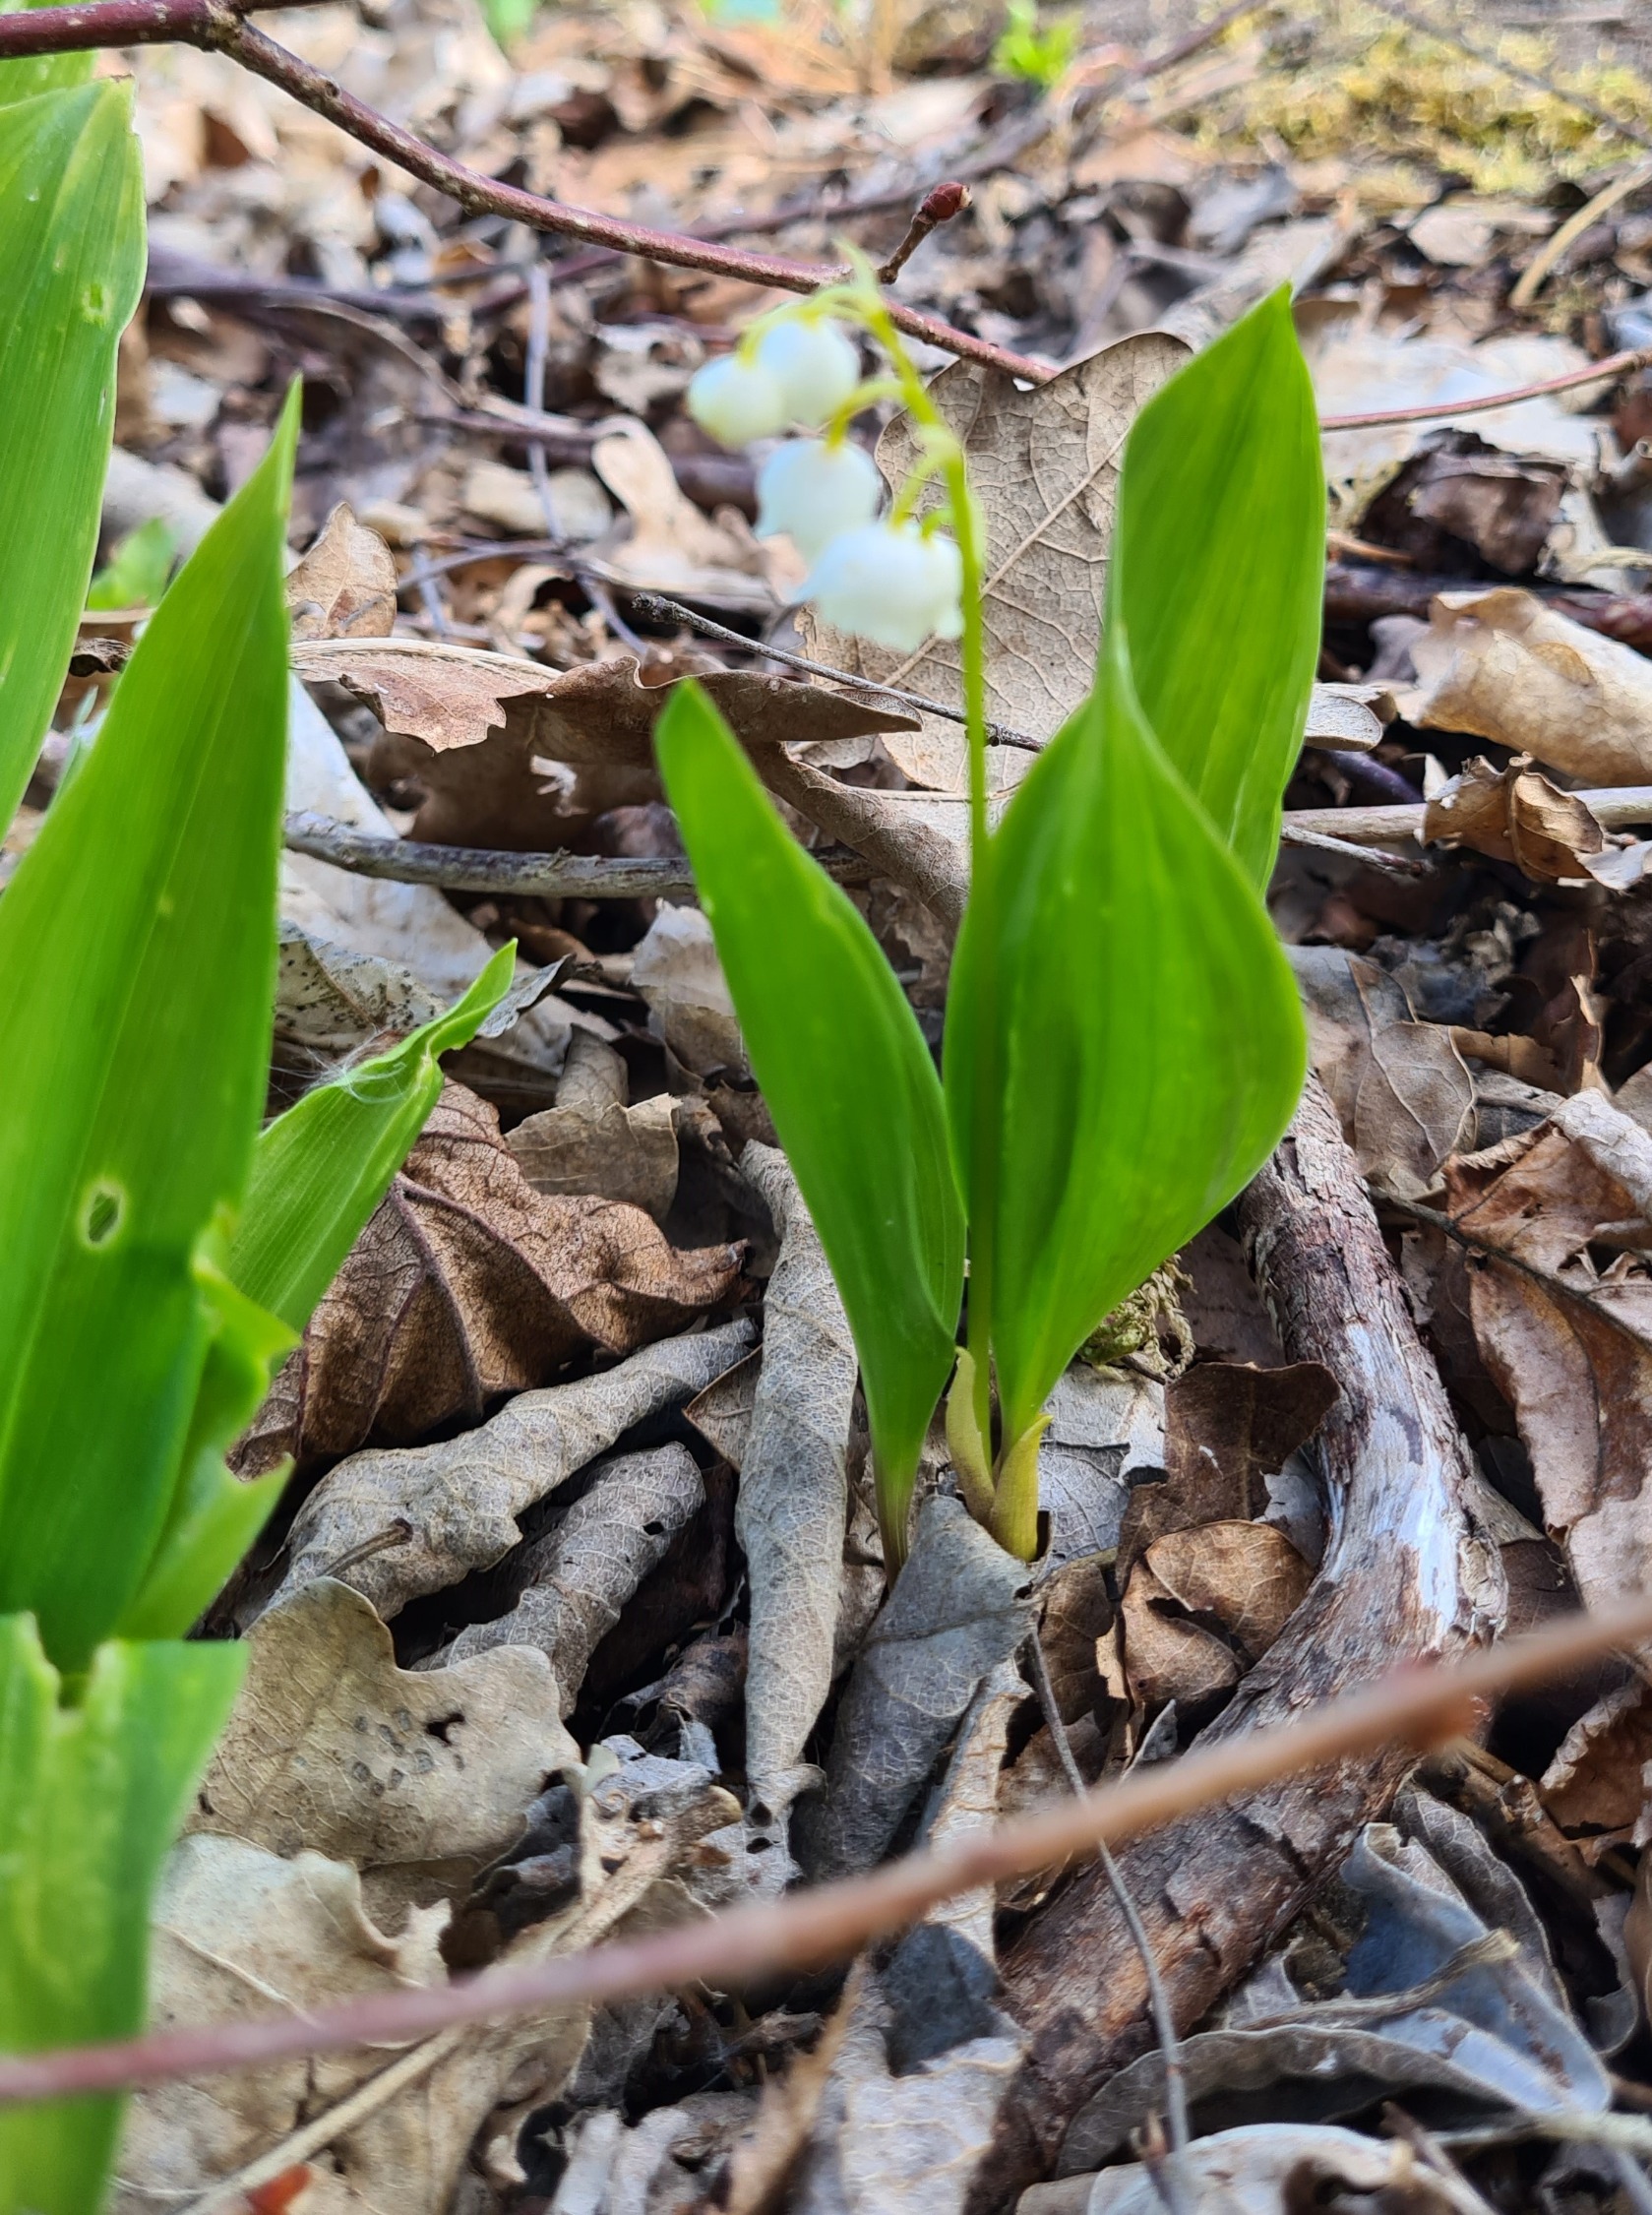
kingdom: Plantae
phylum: Tracheophyta
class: Liliopsida
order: Asparagales
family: Asparagaceae
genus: Convallaria
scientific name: Convallaria majalis
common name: Liljekonval
